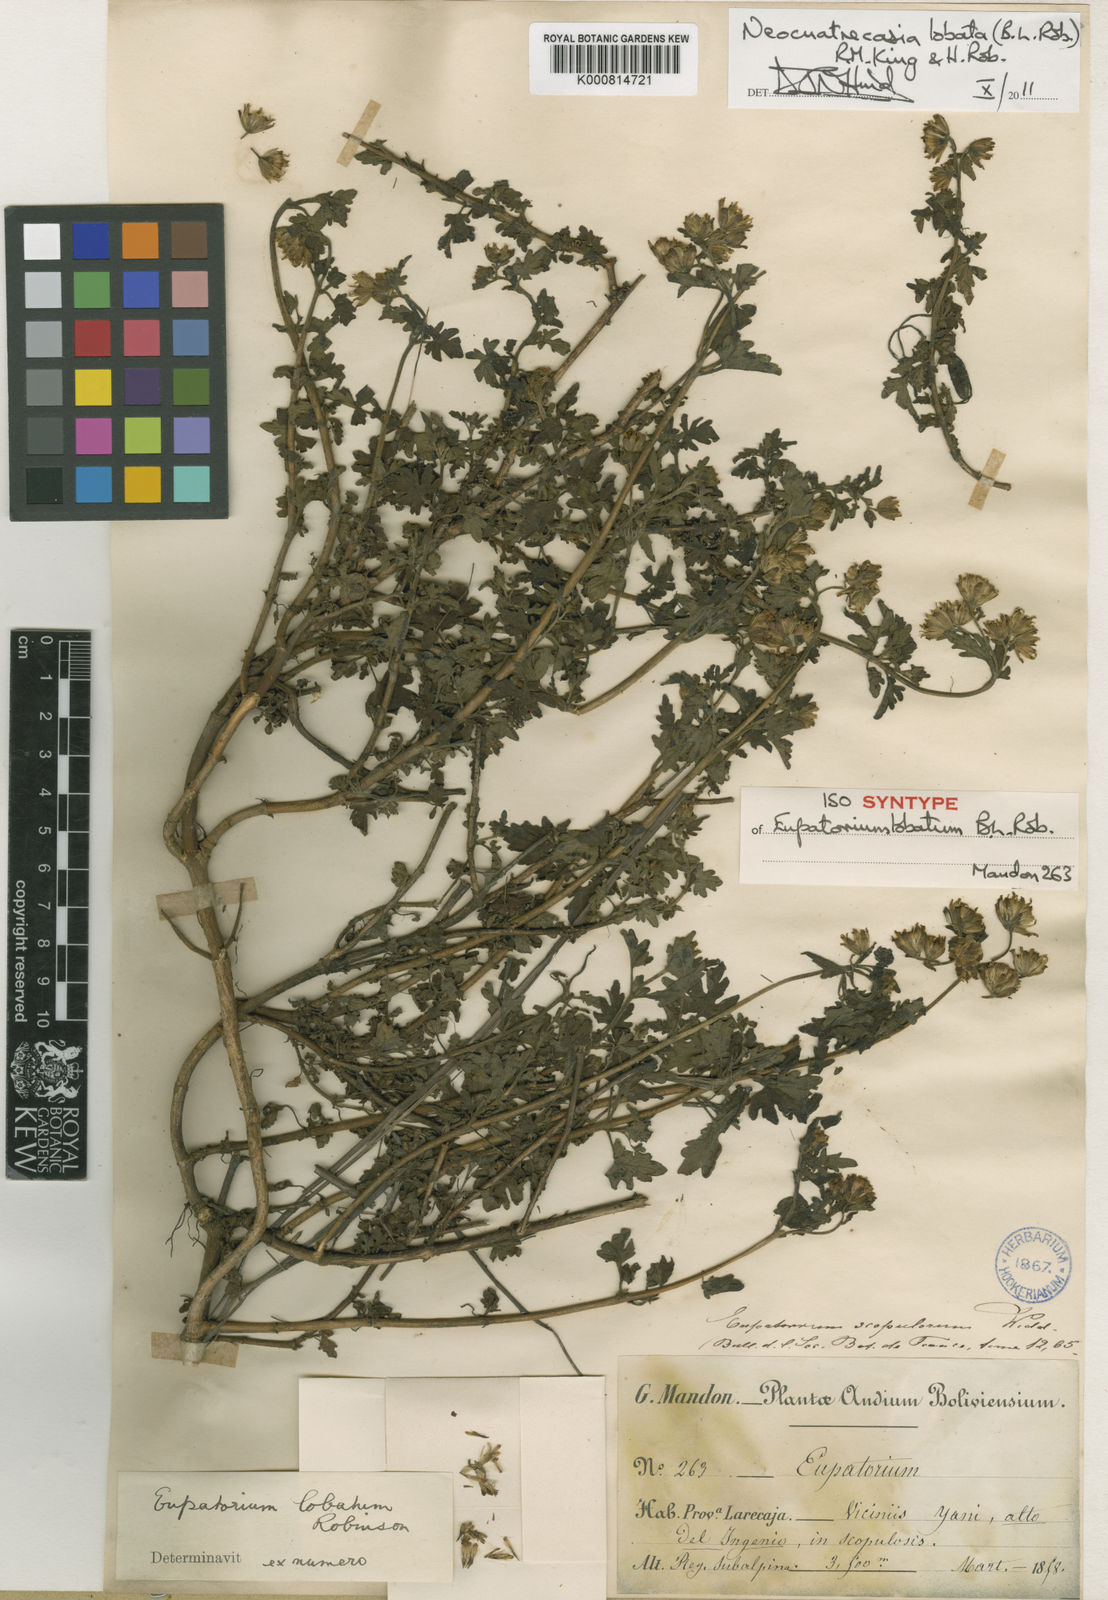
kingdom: Plantae
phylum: Tracheophyta
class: Magnoliopsida
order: Asterales
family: Asteraceae
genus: Neocuatrecasia
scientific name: Neocuatrecasia lobata
